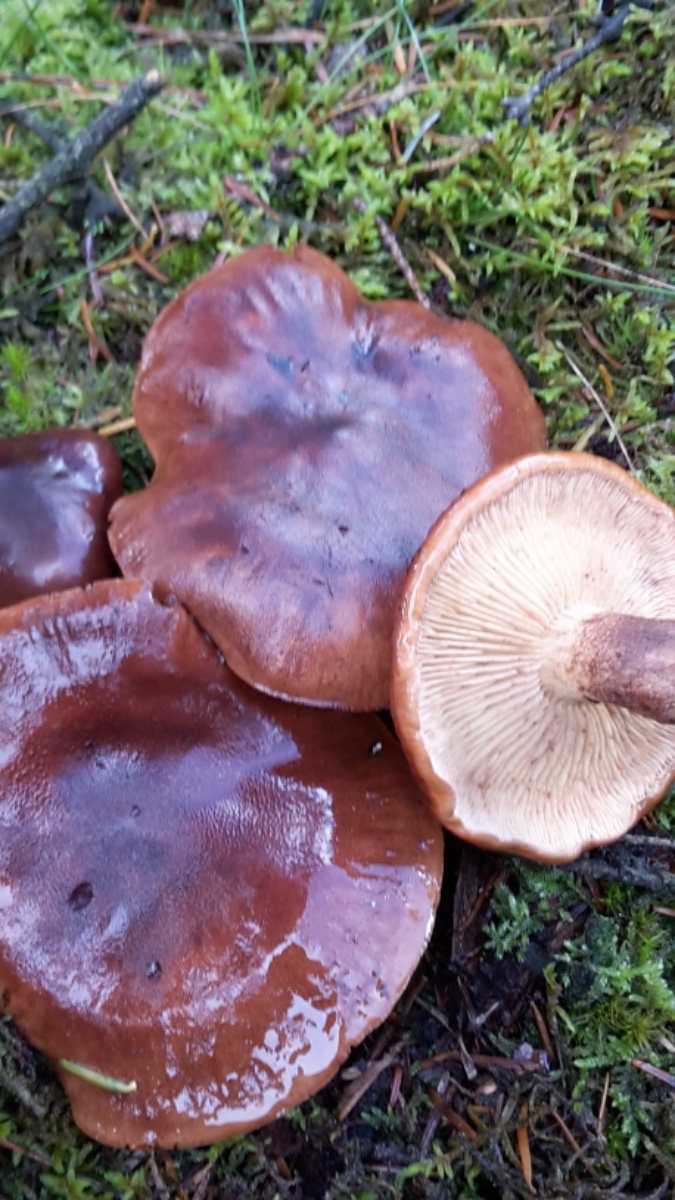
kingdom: Fungi
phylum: Basidiomycota
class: Agaricomycetes
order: Agaricales
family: Tricholomataceae
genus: Tricholoma
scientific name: Tricholoma fulvum
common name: birke-ridderhat
